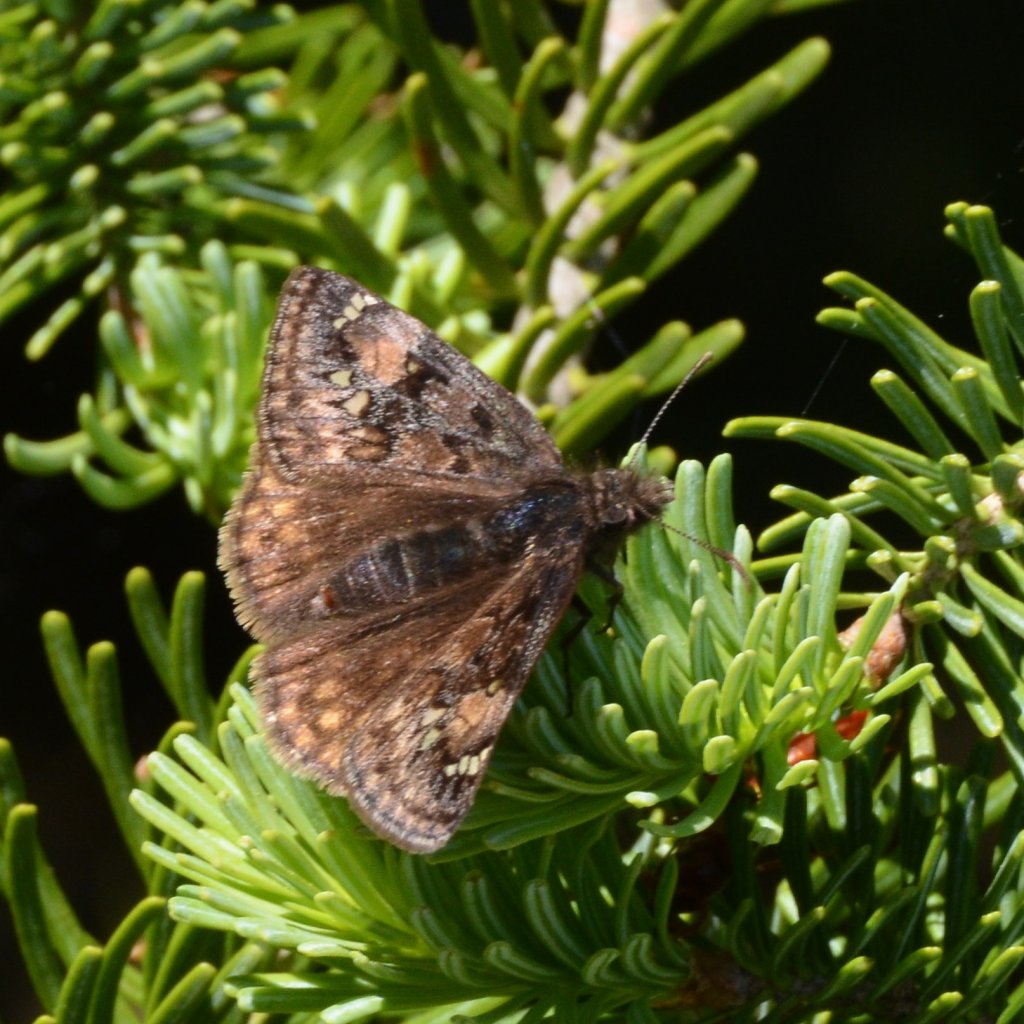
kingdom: Animalia
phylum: Arthropoda
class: Insecta
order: Lepidoptera
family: Hesperiidae
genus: Erynnis
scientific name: Erynnis
